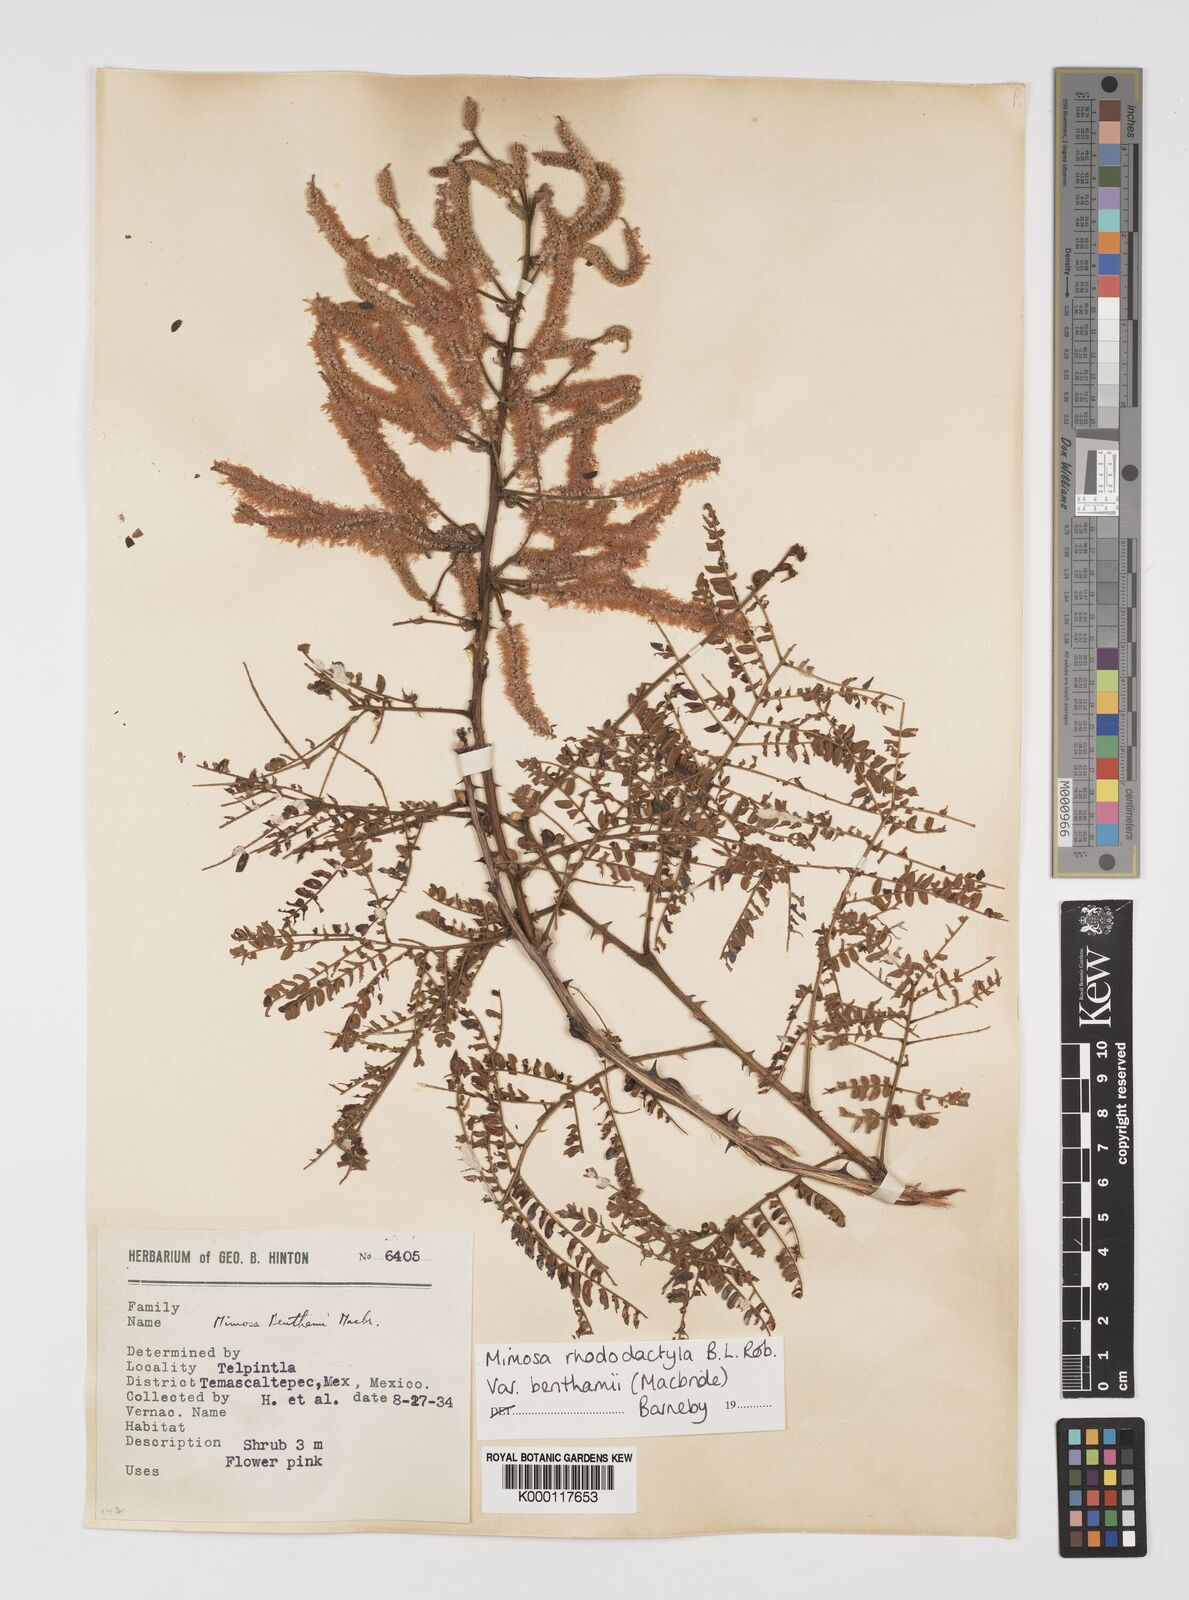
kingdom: Plantae
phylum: Tracheophyta
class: Magnoliopsida
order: Fabales
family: Fabaceae
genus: Mimosa
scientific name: Mimosa benthamii
